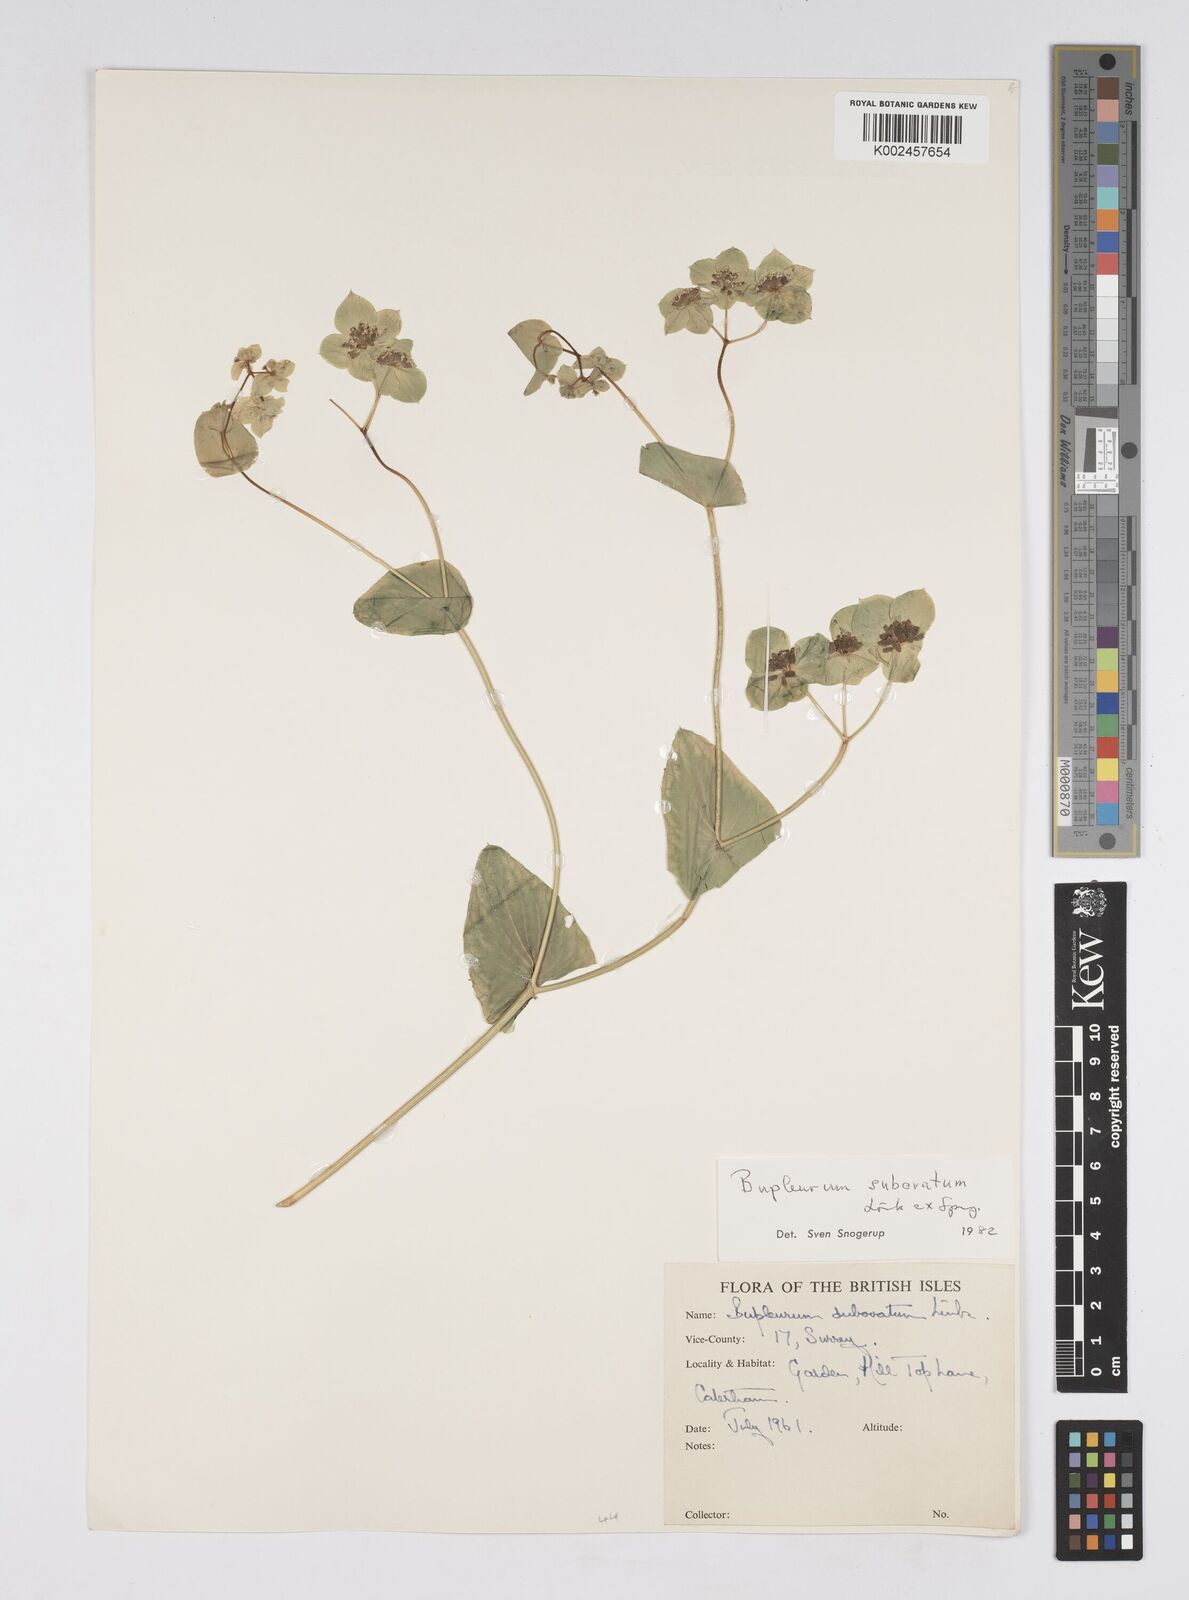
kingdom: Plantae
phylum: Tracheophyta
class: Magnoliopsida
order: Apiales
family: Apiaceae
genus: Bupleurum
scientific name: Bupleurum subovatum
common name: False thorow-wax
